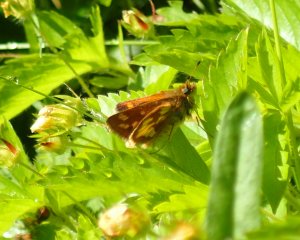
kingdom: Animalia
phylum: Arthropoda
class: Insecta
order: Lepidoptera
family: Hesperiidae
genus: Polites
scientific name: Polites coras
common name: Peck's Skipper
